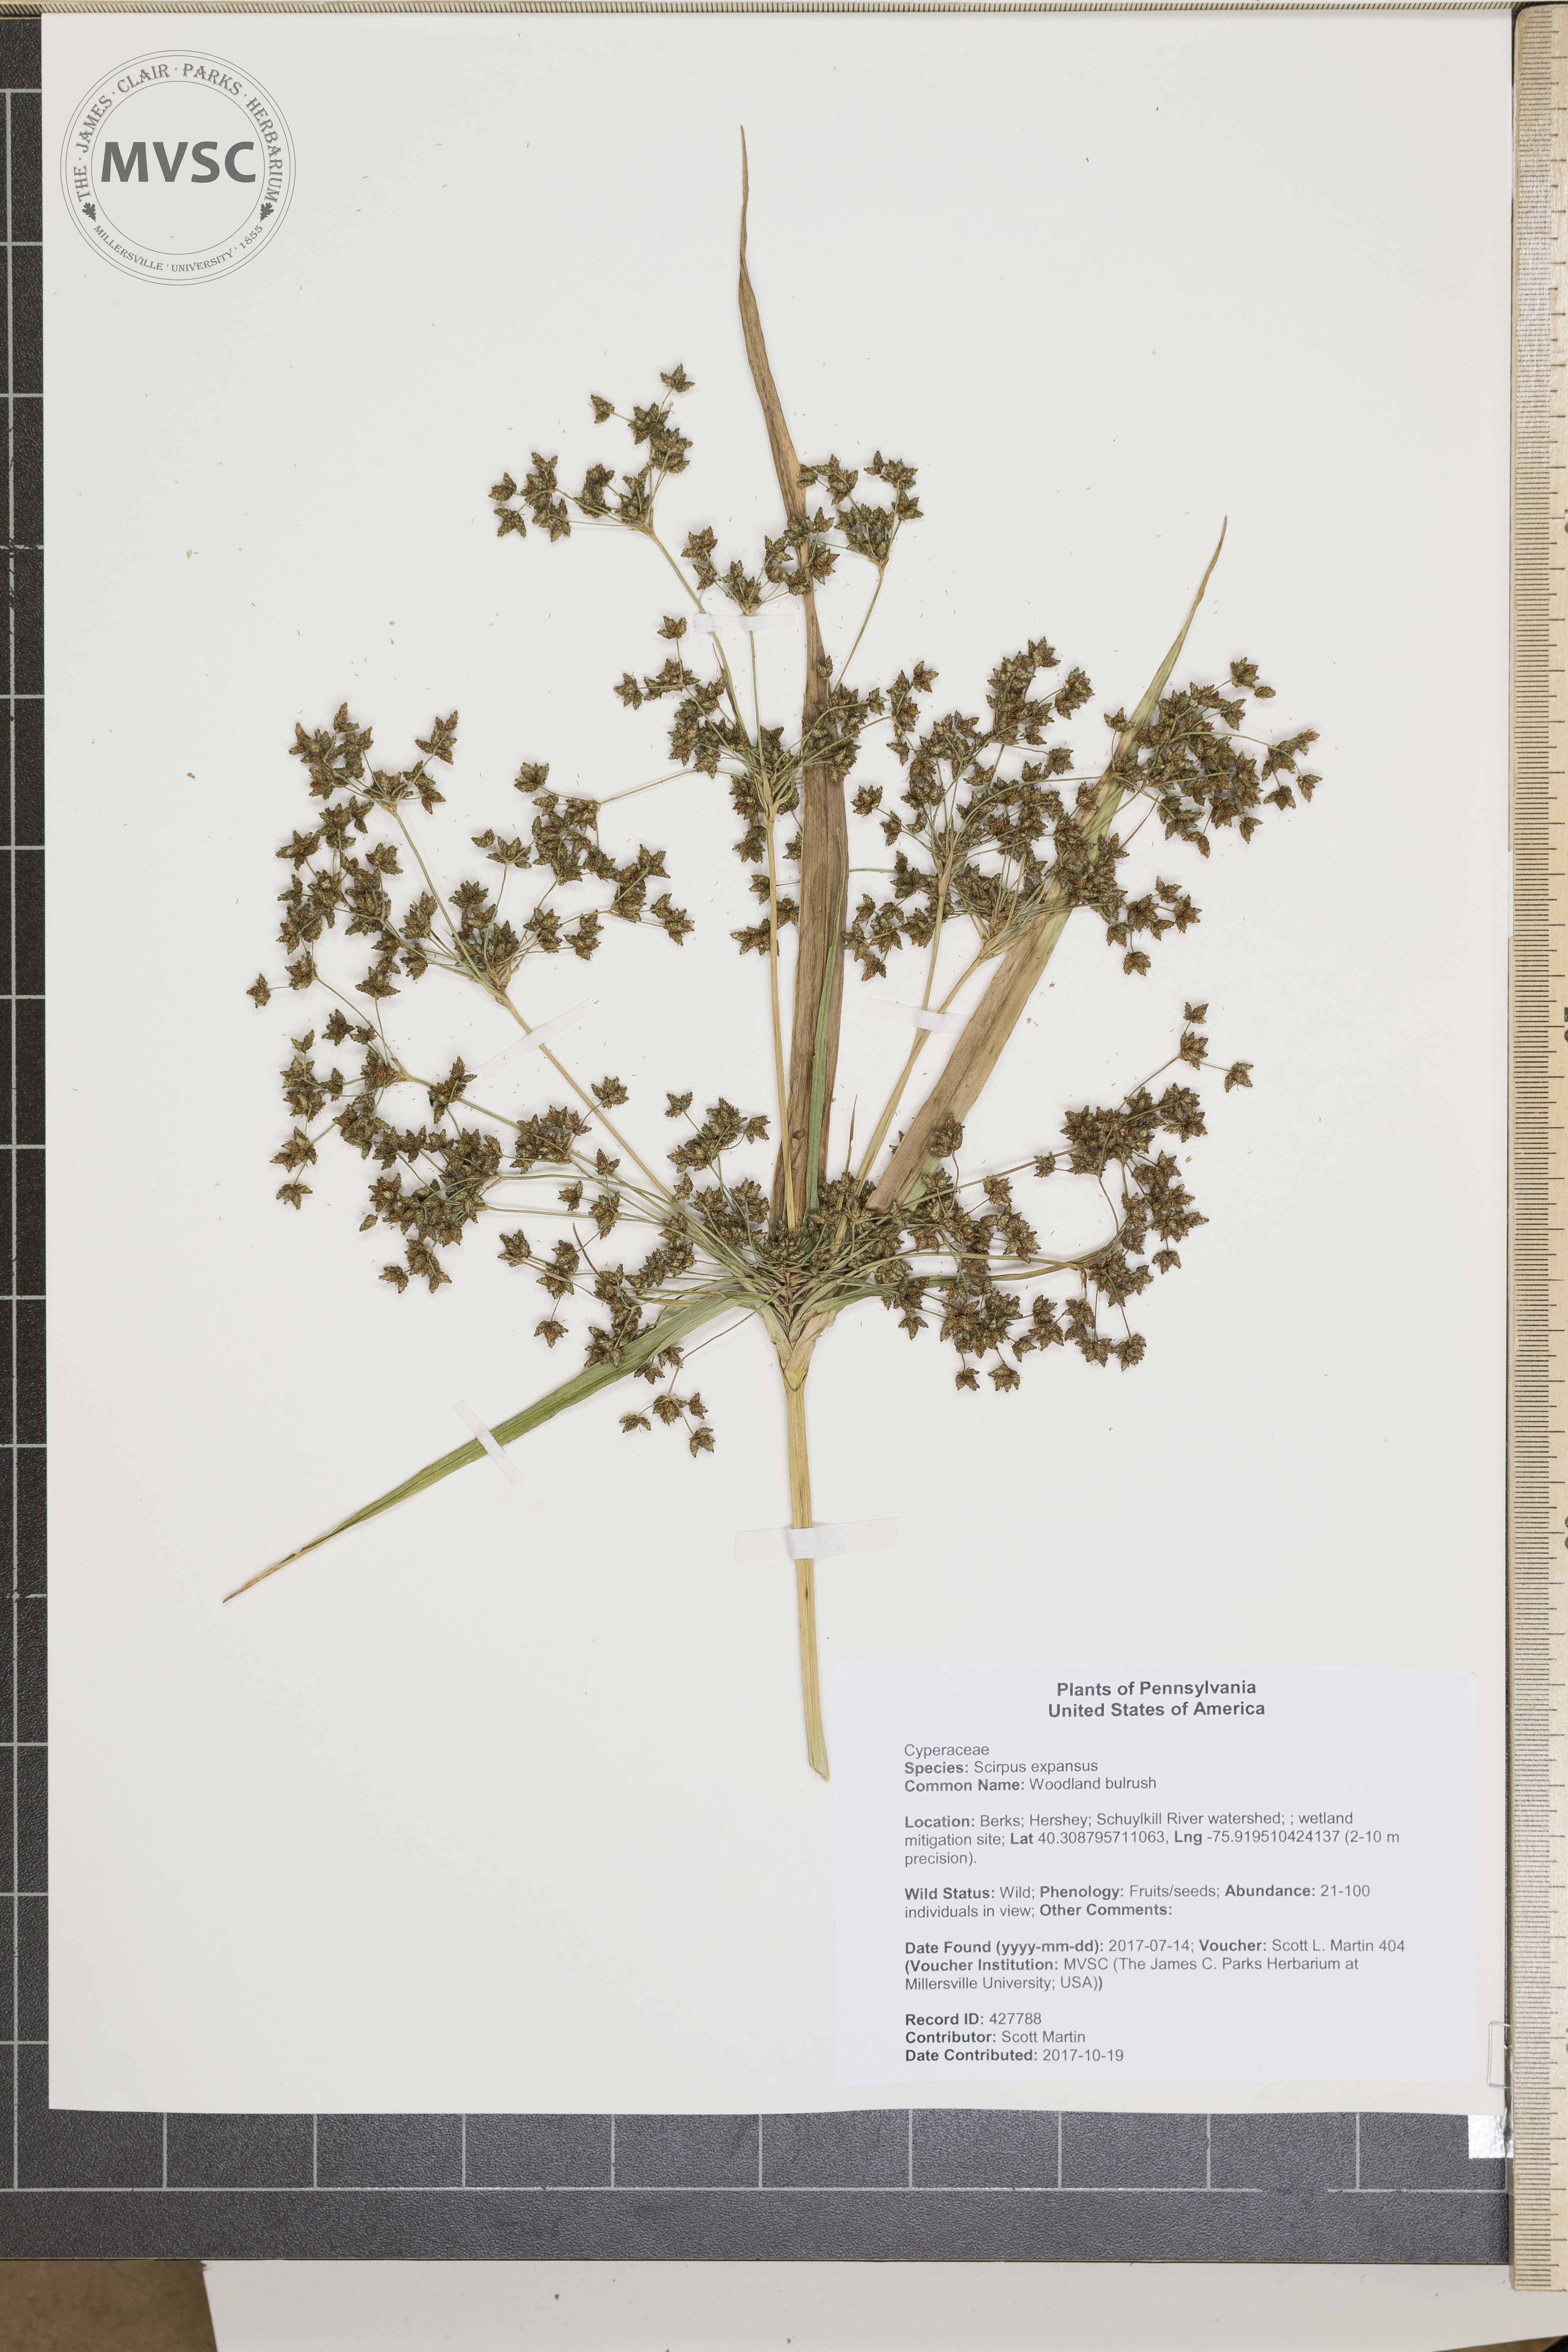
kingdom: Plantae
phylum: Tracheophyta
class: Liliopsida
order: Poales
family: Cyperaceae
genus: Scirpus
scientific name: Scirpus expansus
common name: Woodland bulrush
